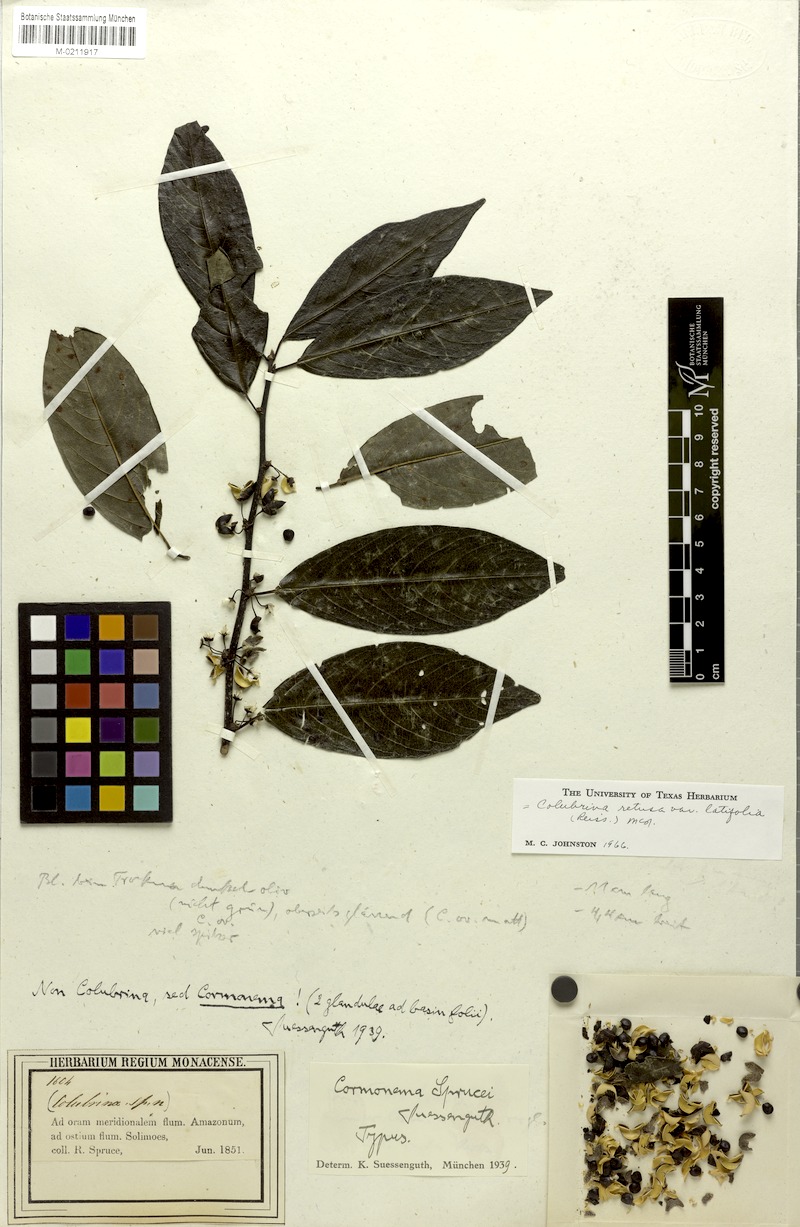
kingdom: Plantae
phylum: Tracheophyta
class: Magnoliopsida
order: Rosales
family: Rhamnaceae
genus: Colubrina
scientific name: Colubrina retusa
